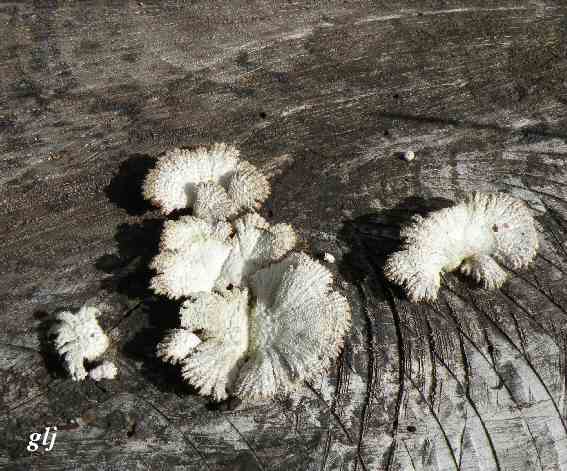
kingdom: Fungi
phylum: Basidiomycota
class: Agaricomycetes
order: Agaricales
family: Schizophyllaceae
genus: Schizophyllum
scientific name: Schizophyllum commune
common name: kløvblad
